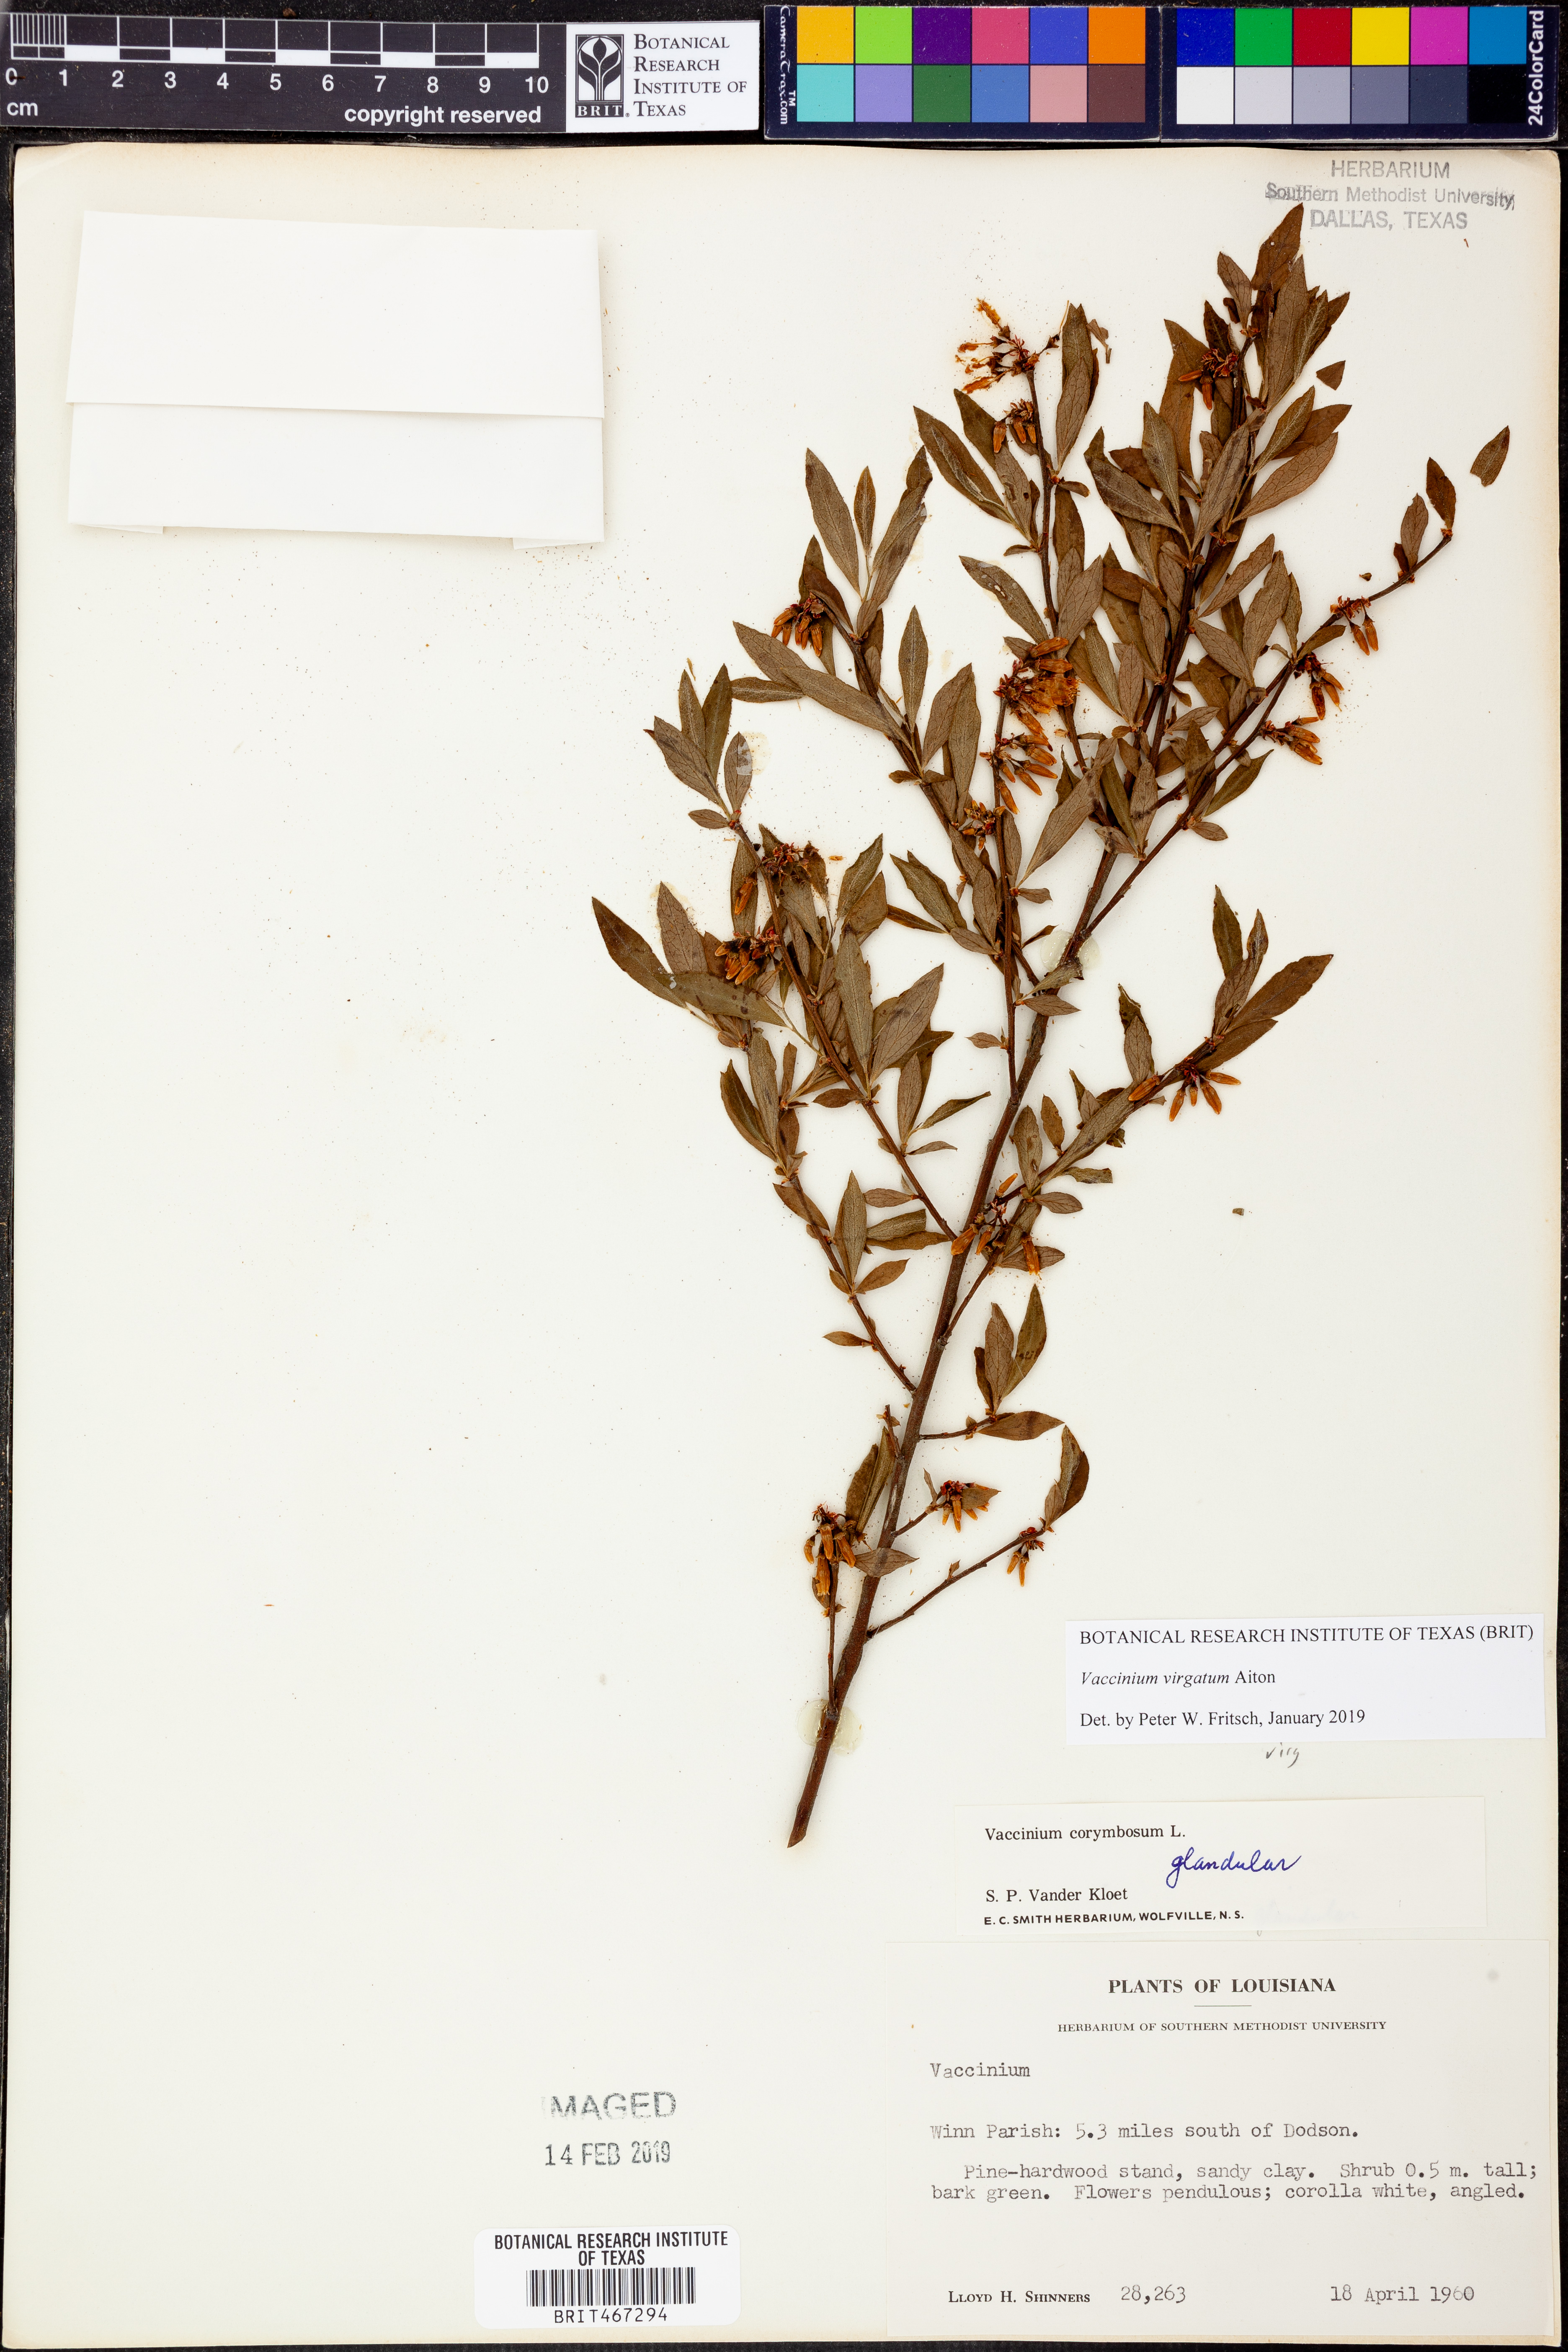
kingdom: Plantae
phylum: Tracheophyta
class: Magnoliopsida
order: Ericales
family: Ericaceae
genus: Vaccinium
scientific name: Vaccinium corymbosum
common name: Blueberry
